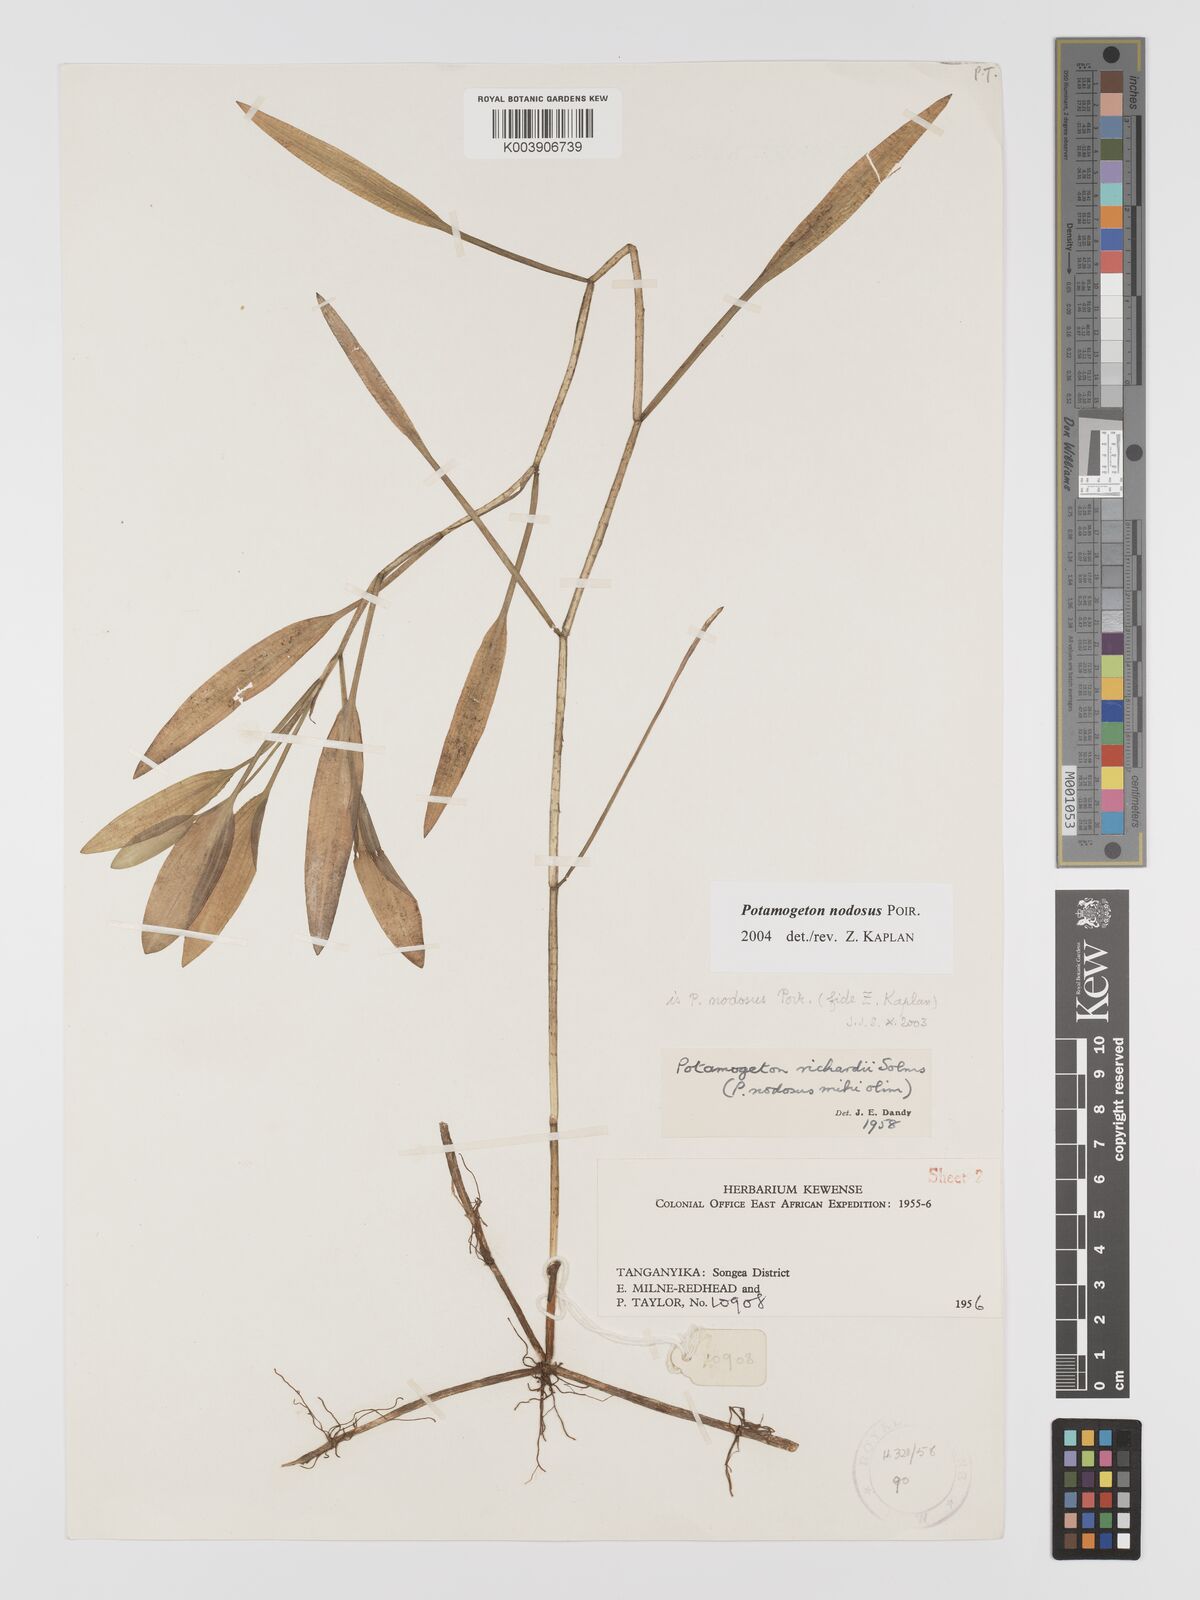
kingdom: Plantae
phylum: Tracheophyta
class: Liliopsida
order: Alismatales
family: Potamogetonaceae
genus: Potamogeton
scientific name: Potamogeton nodosus
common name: Loddon pondweed
